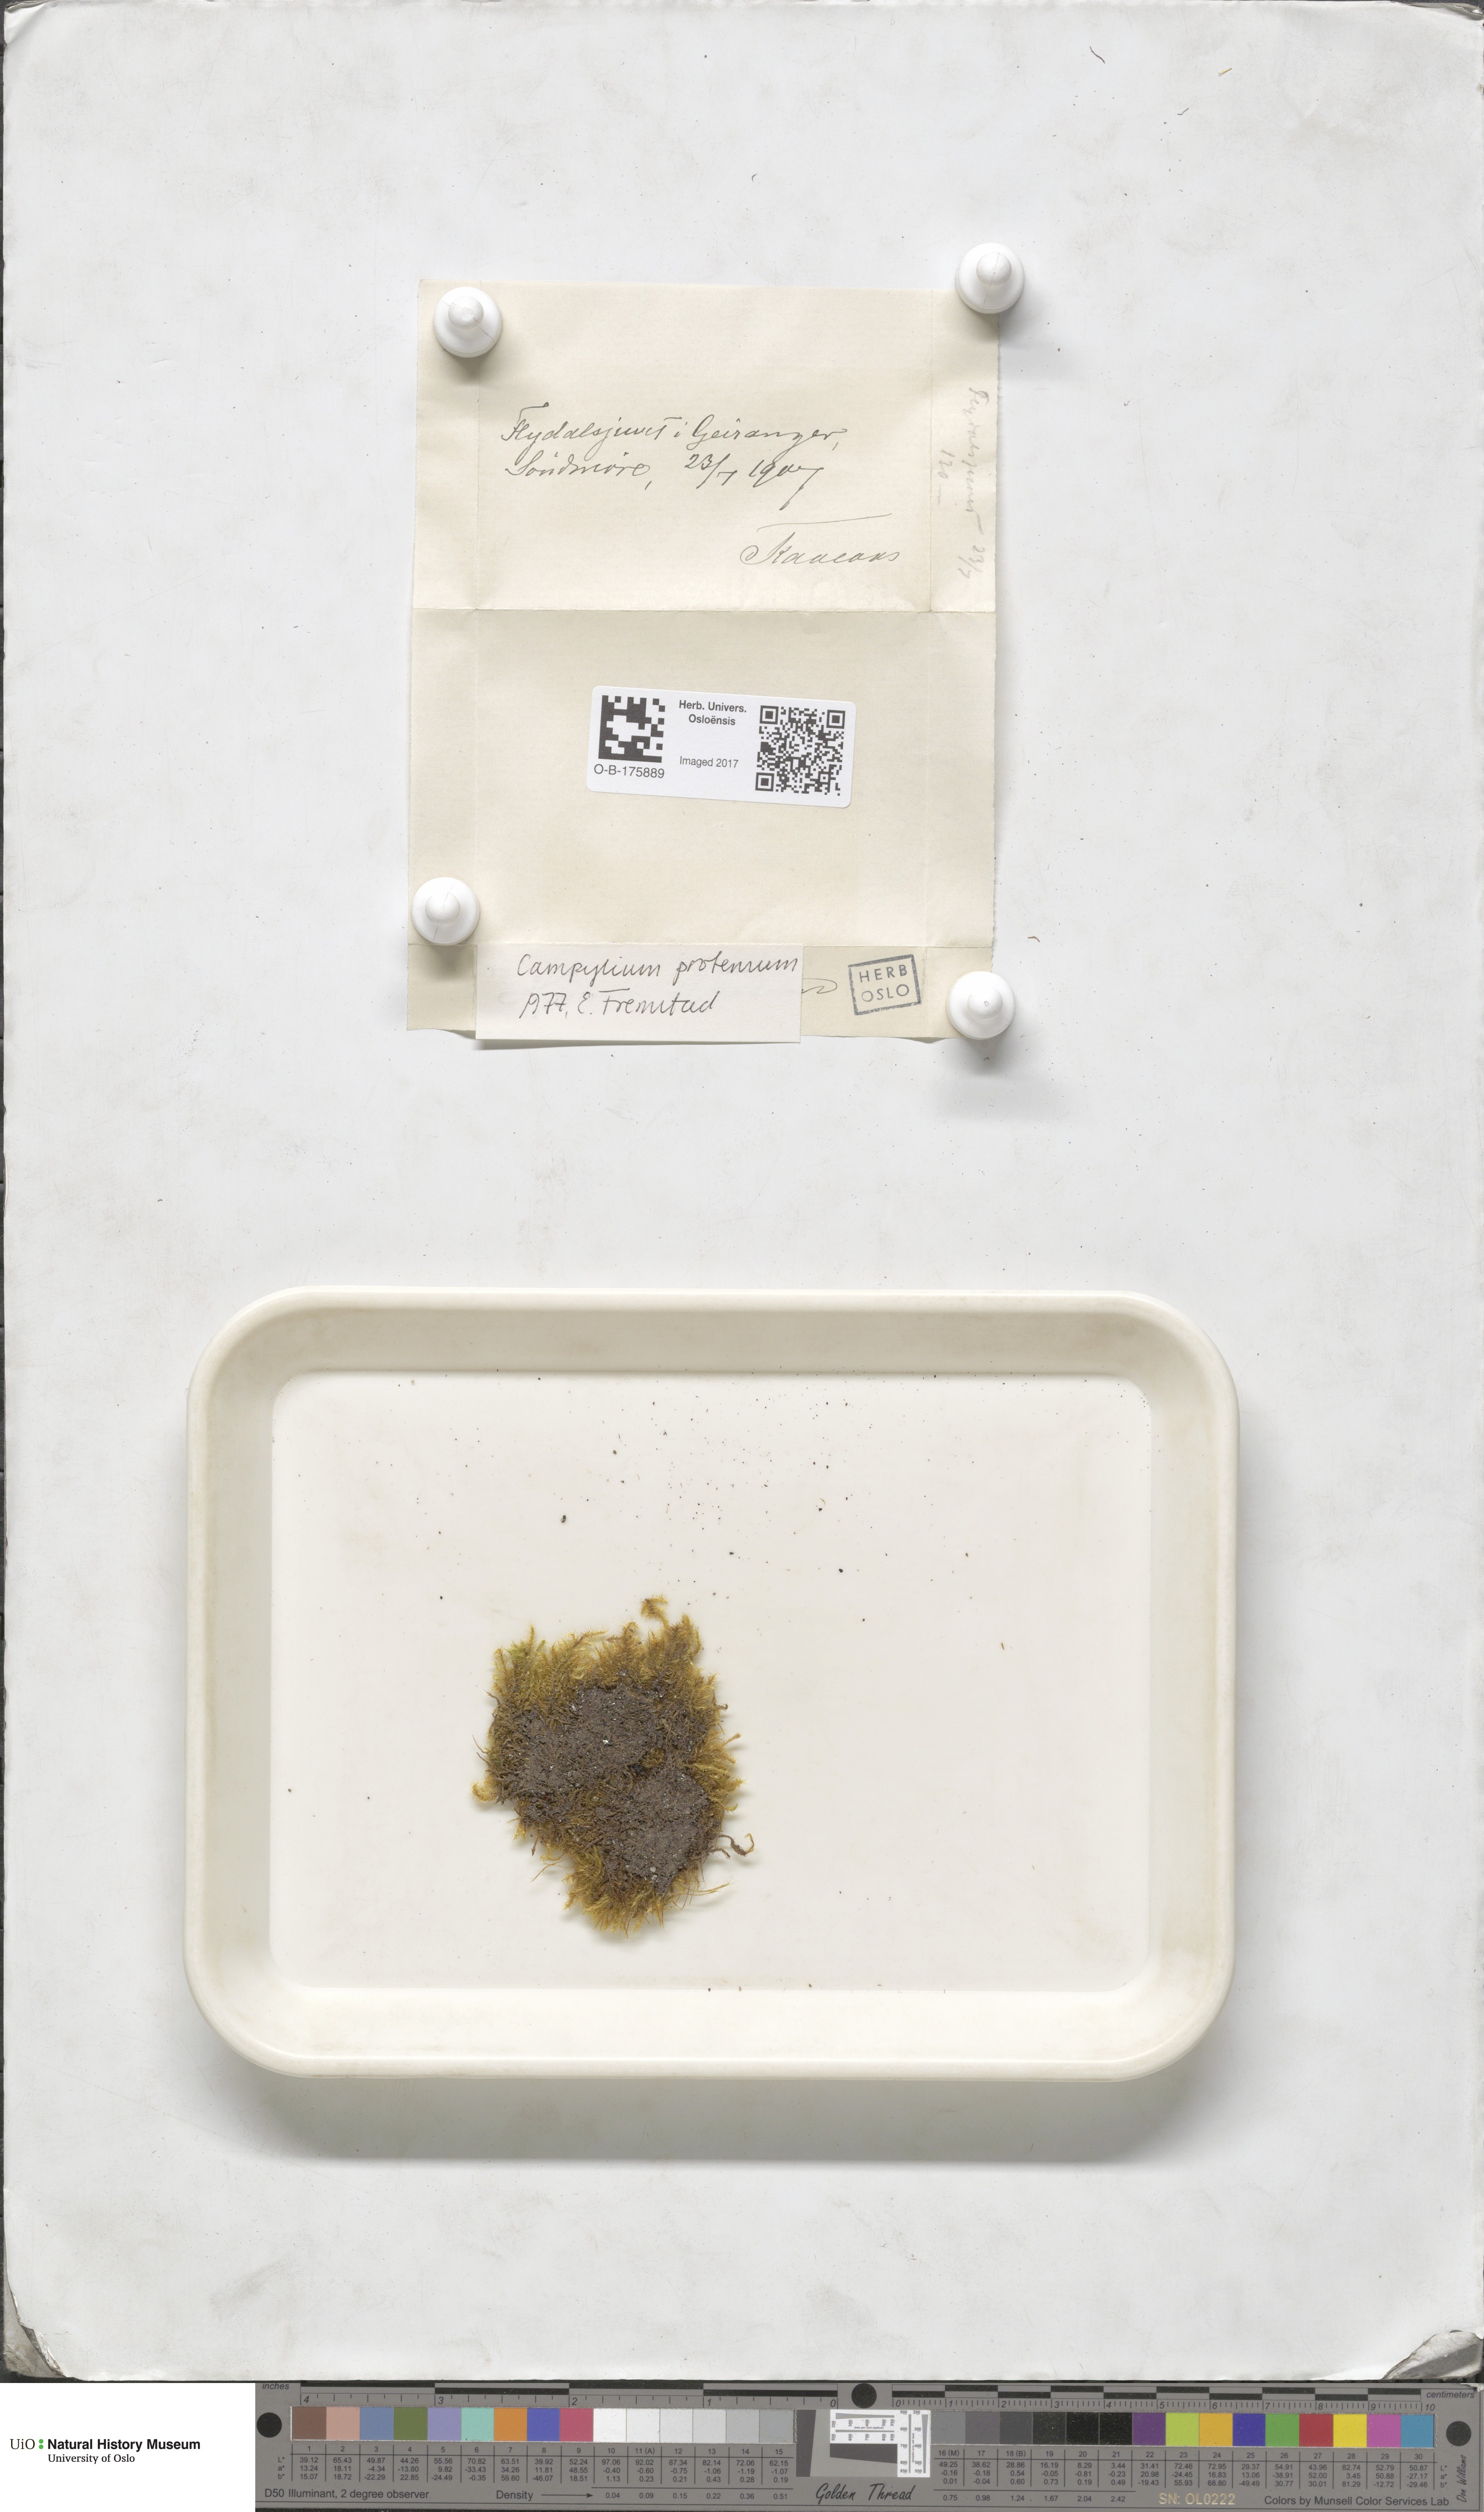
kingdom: Plantae
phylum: Bryophyta
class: Bryopsida
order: Hypnales
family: Amblystegiaceae
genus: Campylium
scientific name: Campylium stellatum
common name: Yellow starry fen moss
